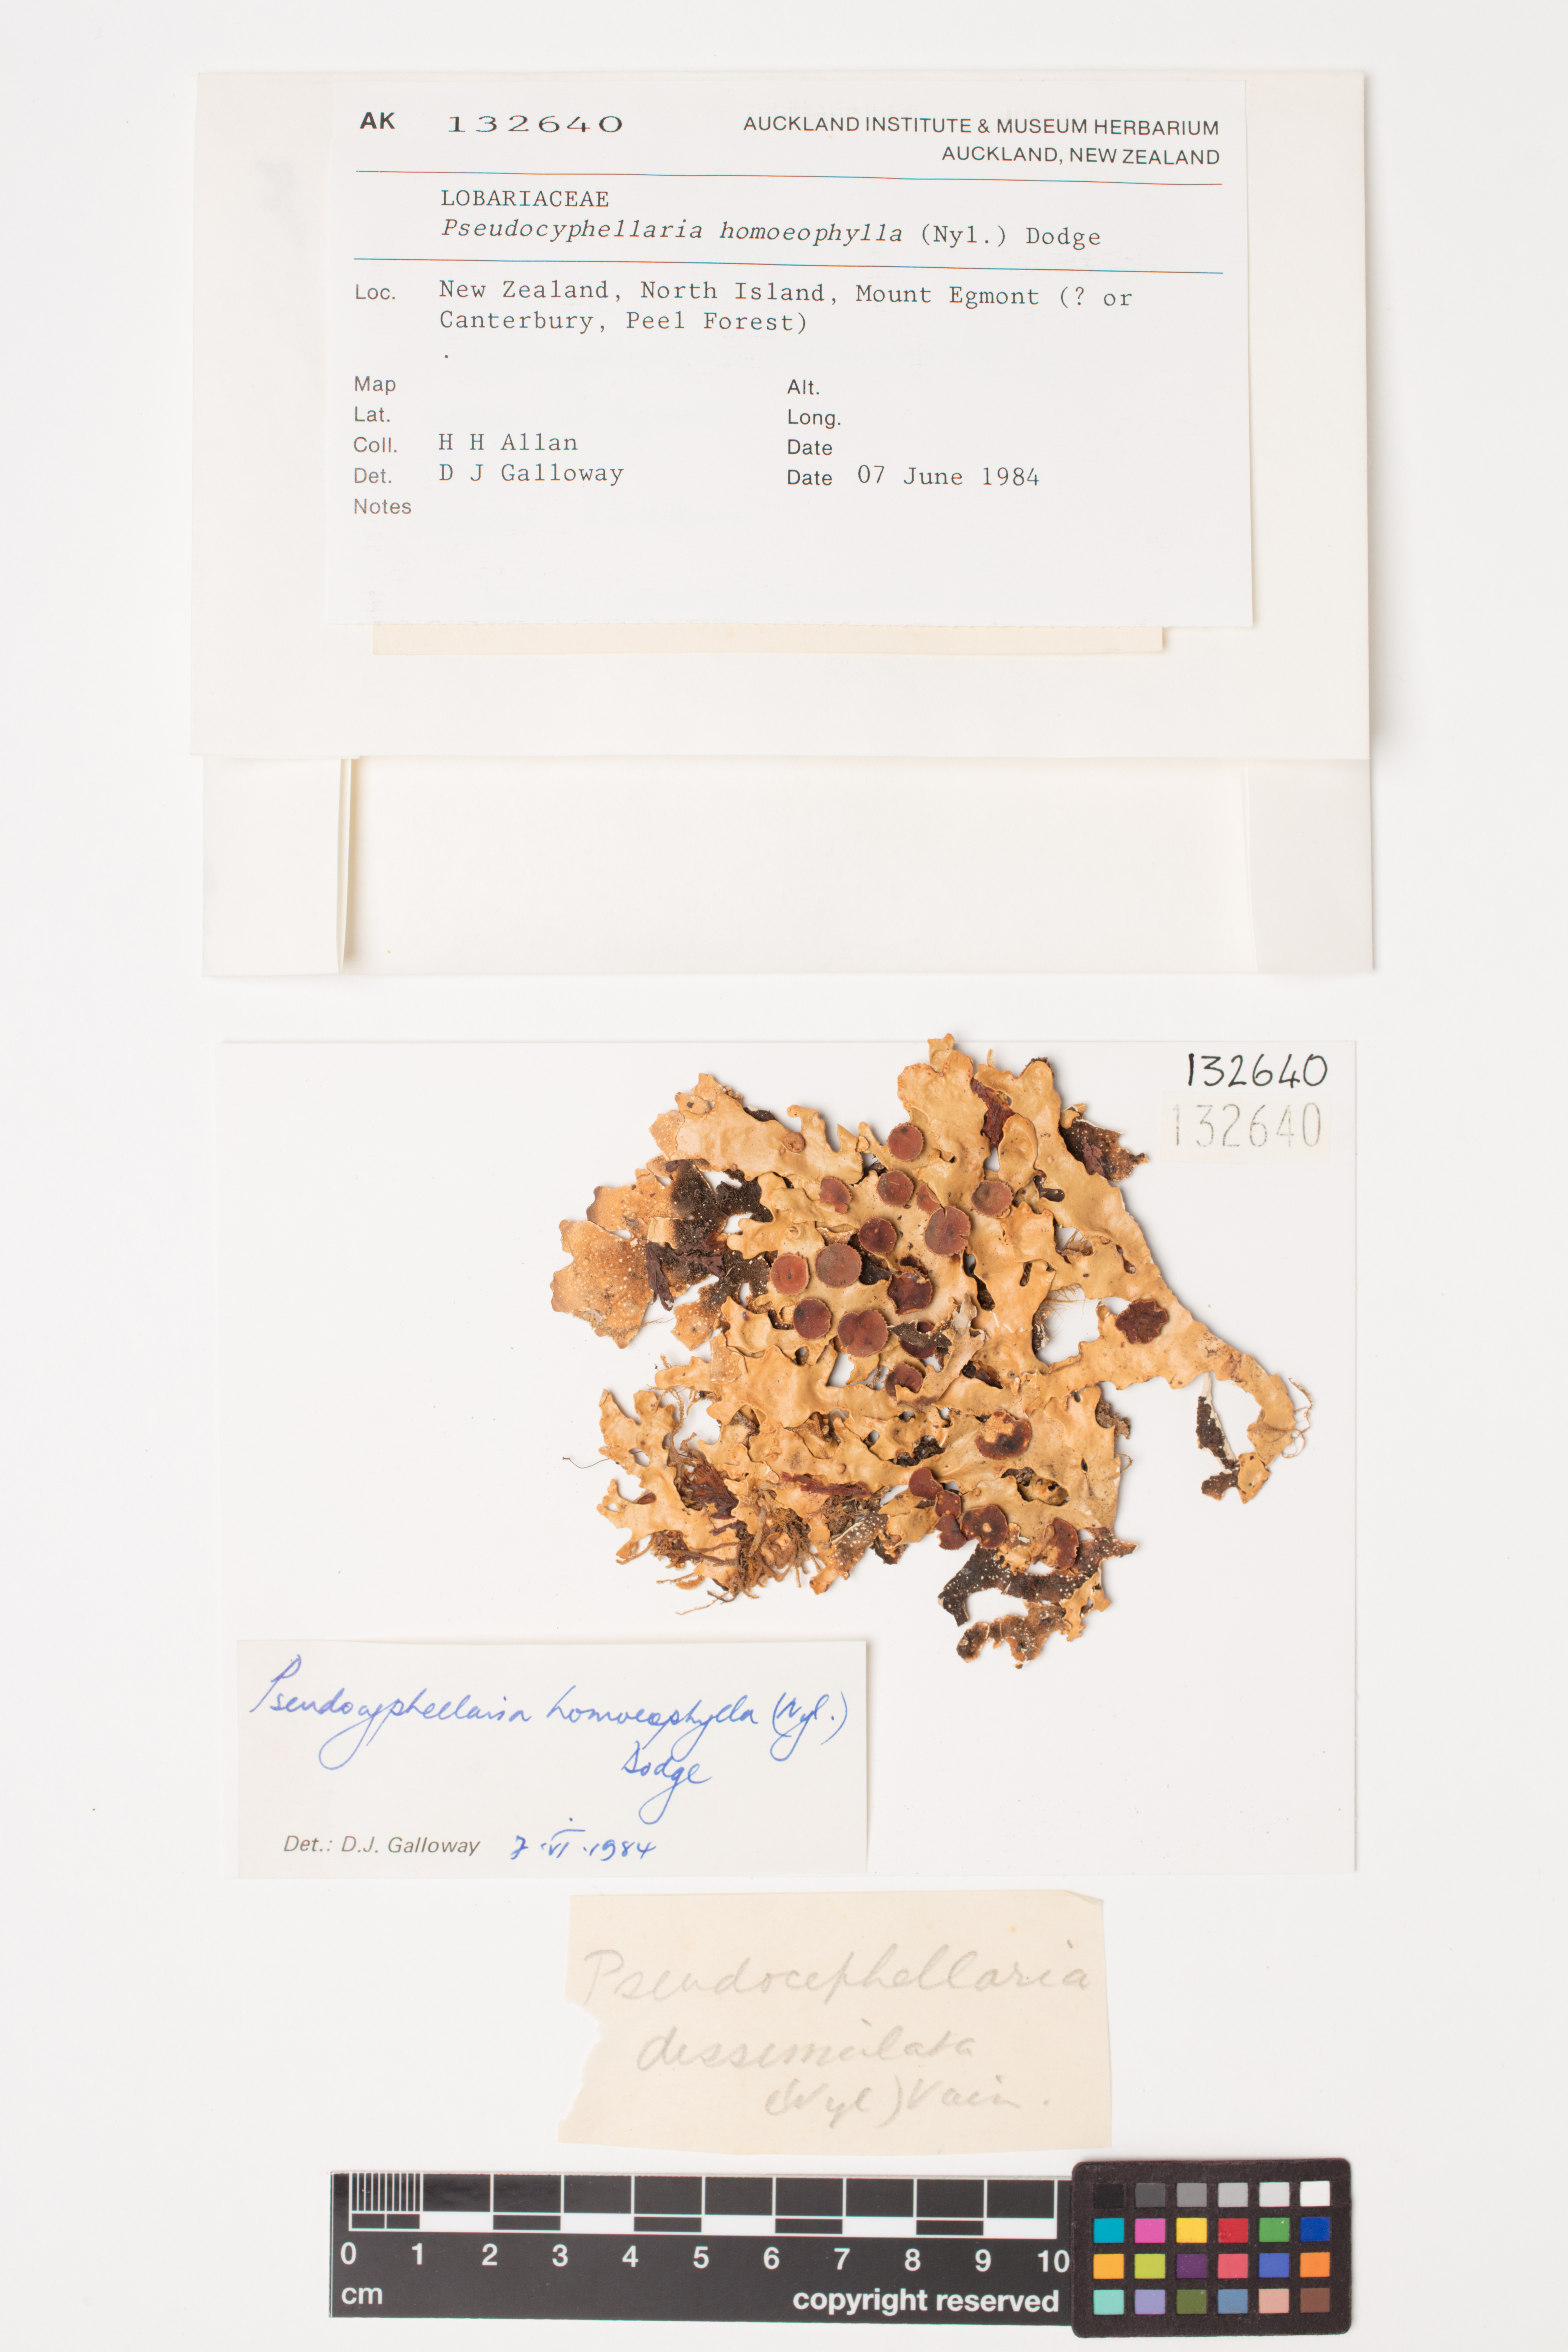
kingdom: Fungi
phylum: Ascomycota
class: Lecanoromycetes
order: Peltigerales
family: Lobariaceae
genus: Pseudocyphellaria
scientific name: Pseudocyphellaria homeophylla
